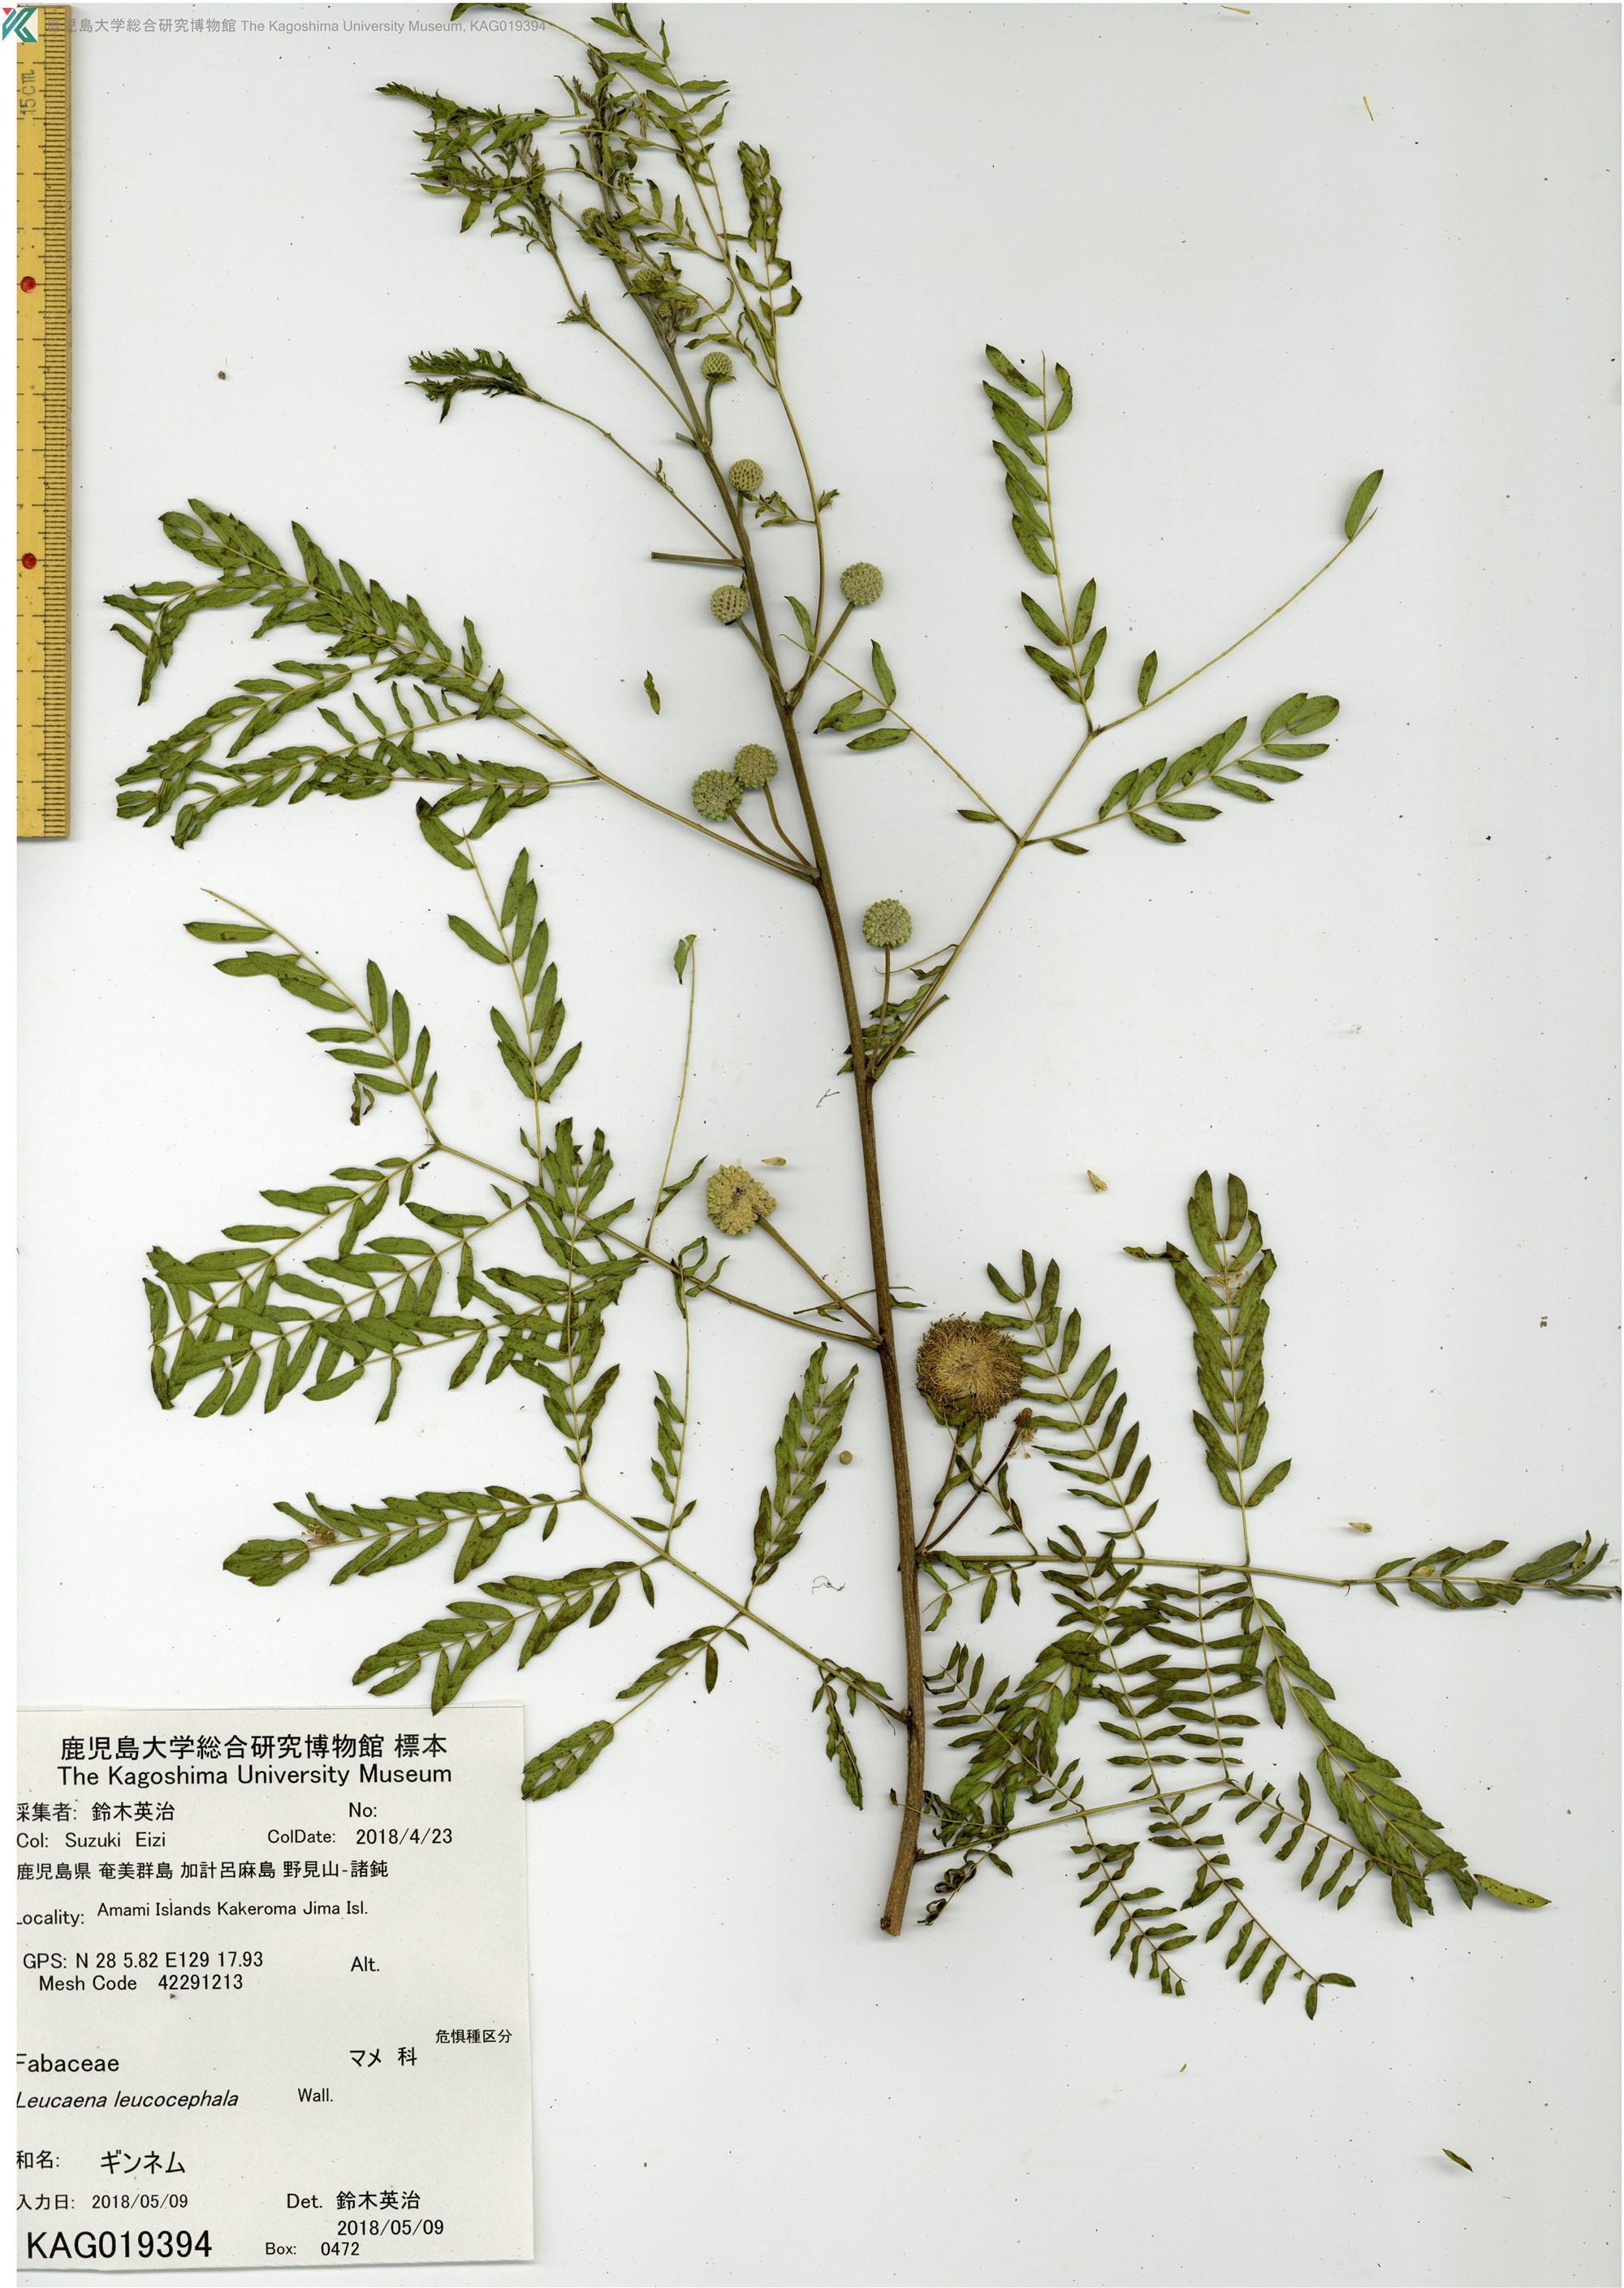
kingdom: Plantae
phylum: Tracheophyta
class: Magnoliopsida
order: Fabales
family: Fabaceae
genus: Leucaena
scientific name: Leucaena leucocephala
